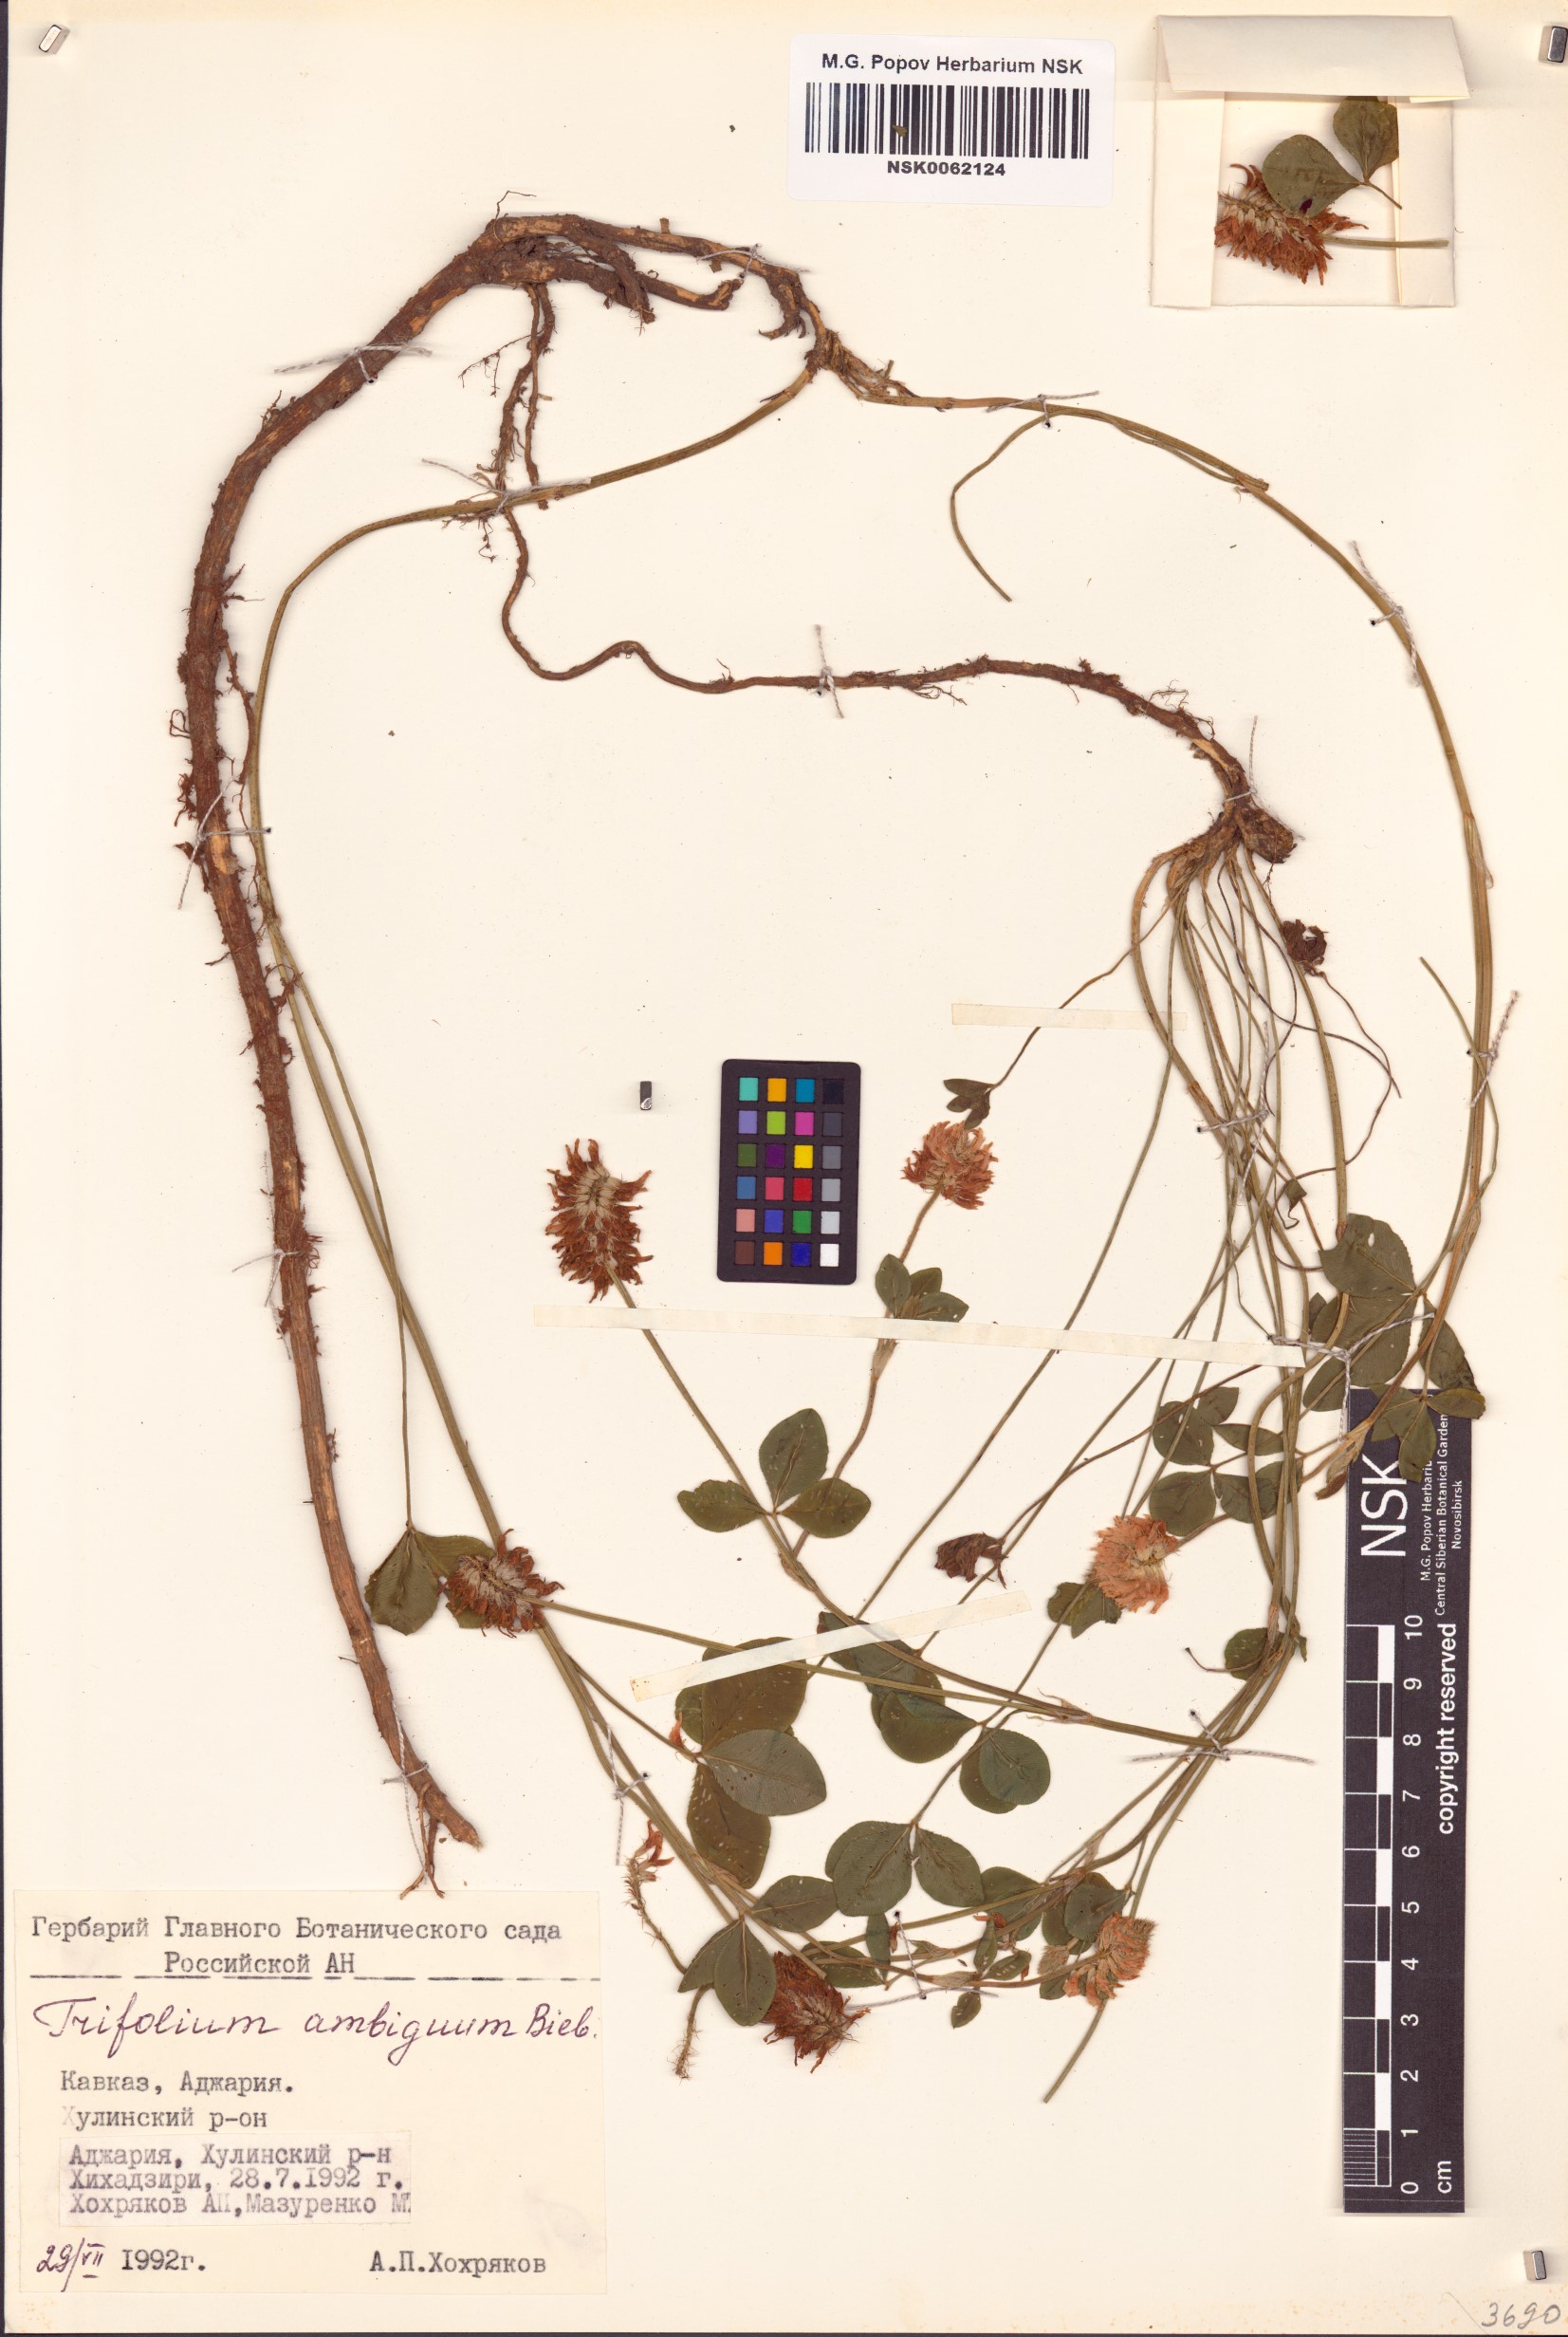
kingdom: Plantae
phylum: Tracheophyta
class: Magnoliopsida
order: Fabales
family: Fabaceae
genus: Trifolium
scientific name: Trifolium ambiguum
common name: Kura clover
